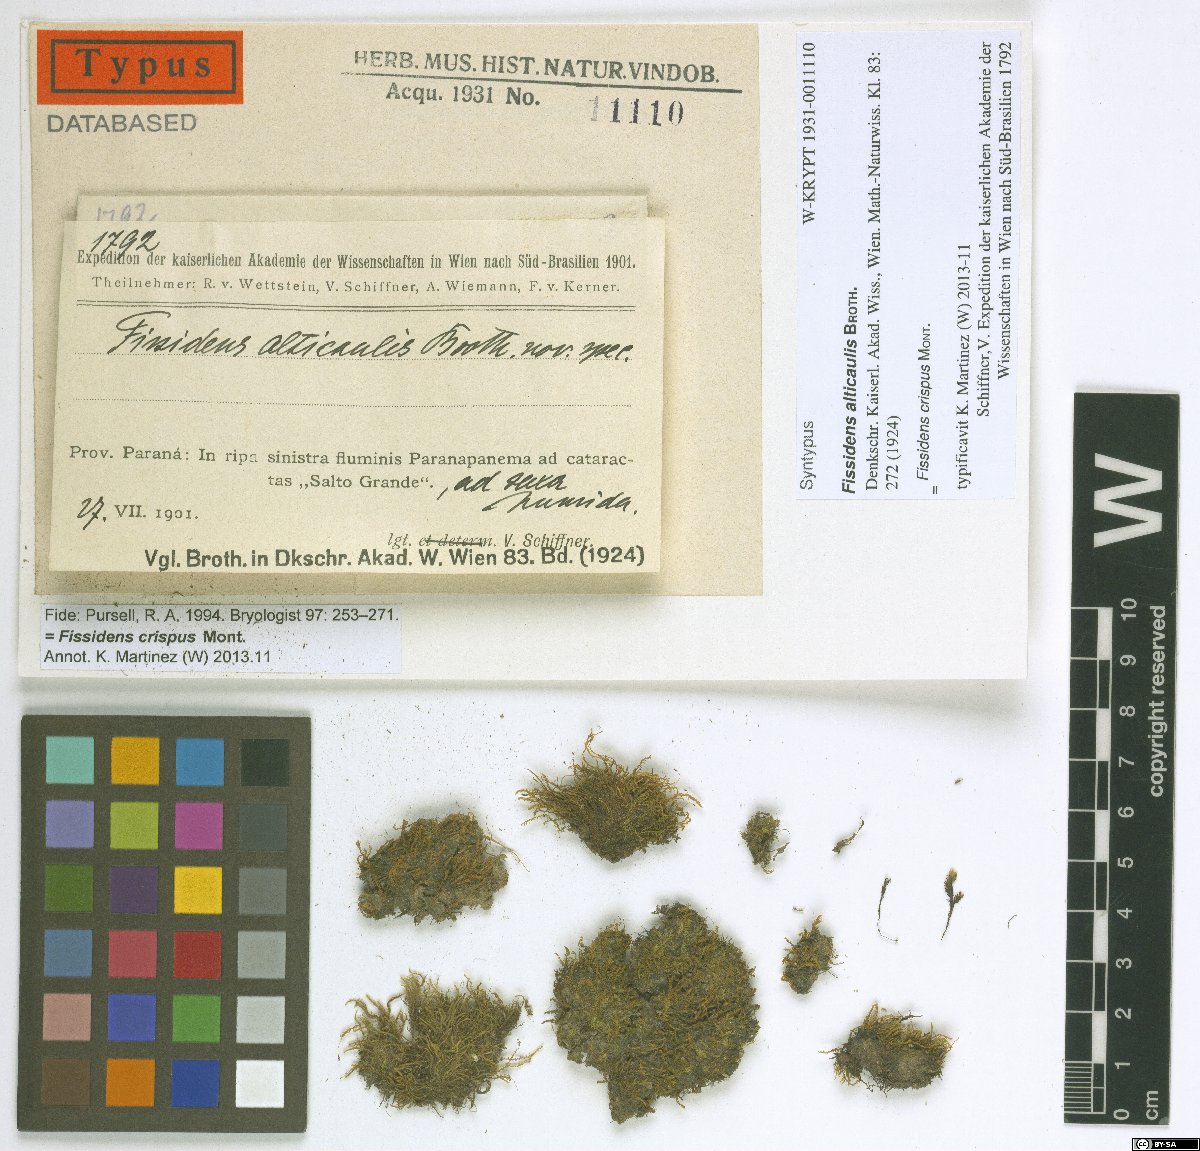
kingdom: Plantae
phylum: Bryophyta
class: Bryopsida
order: Dicranales
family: Fissidentaceae
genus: Fissidens
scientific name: Fissidens crispus
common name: Herzog's pocket-moss
